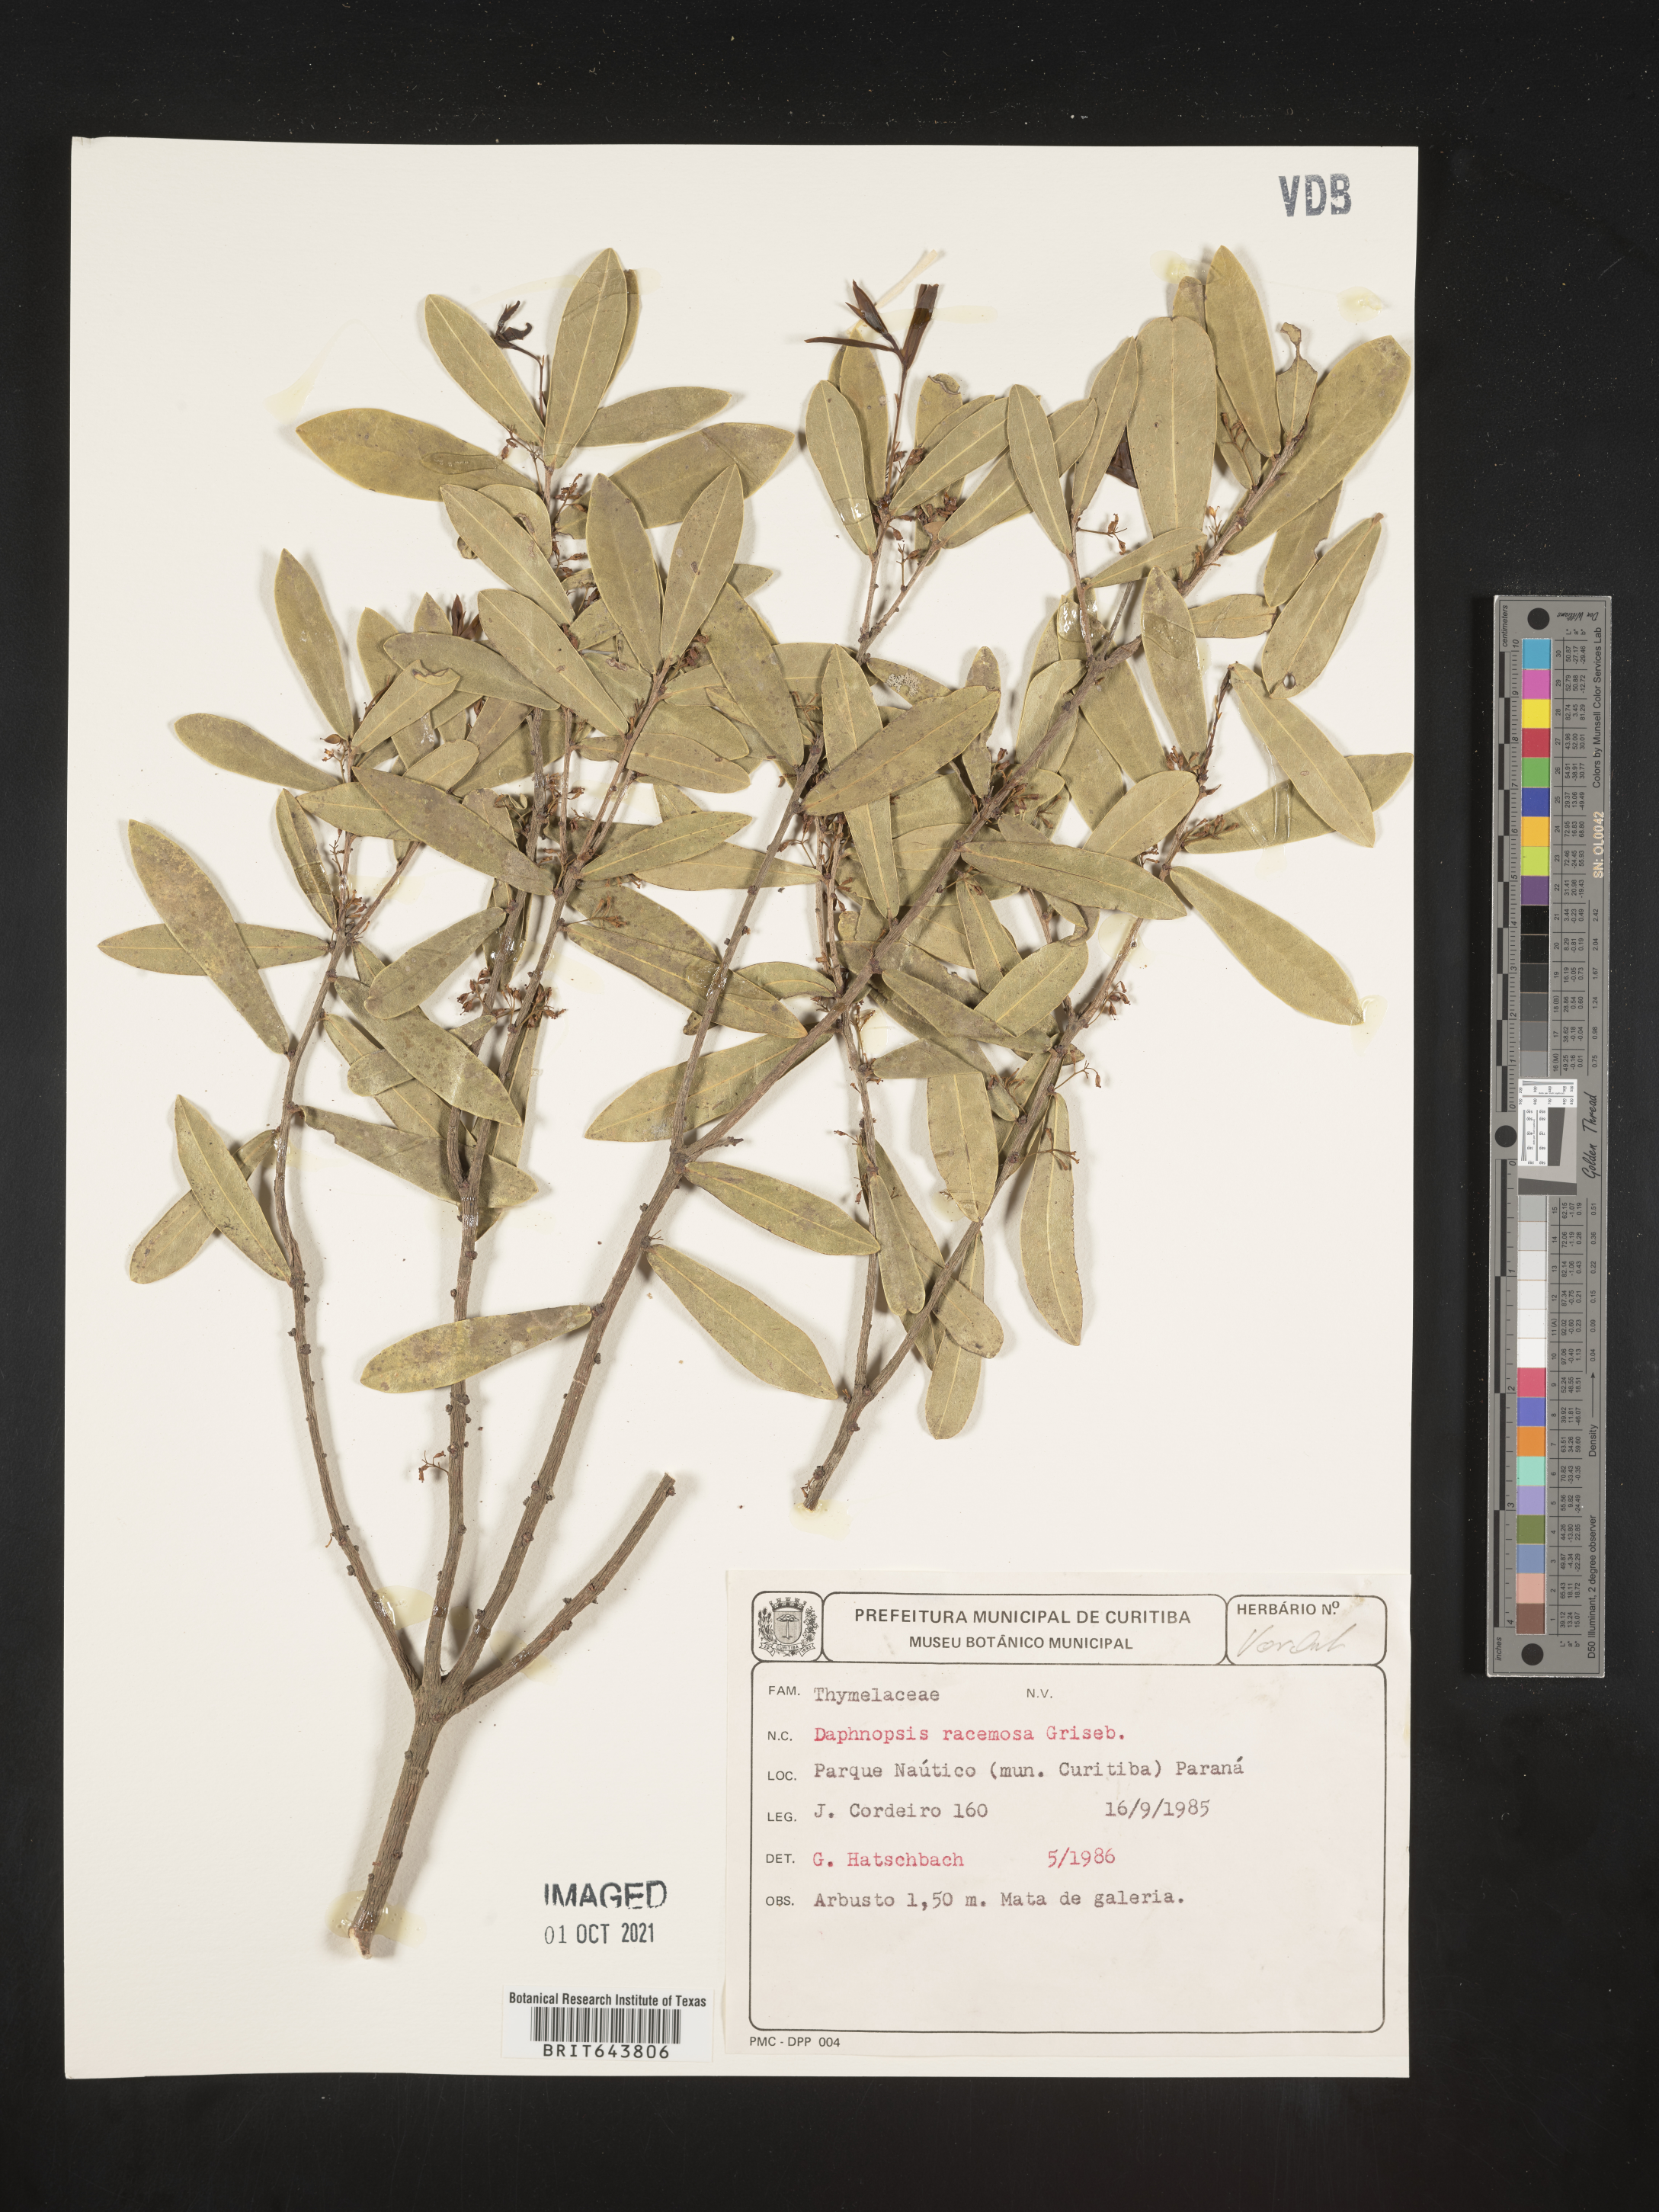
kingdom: Plantae
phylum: Tracheophyta
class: Magnoliopsida
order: Malvales
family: Thymelaeaceae
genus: Daphnopsis
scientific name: Daphnopsis
